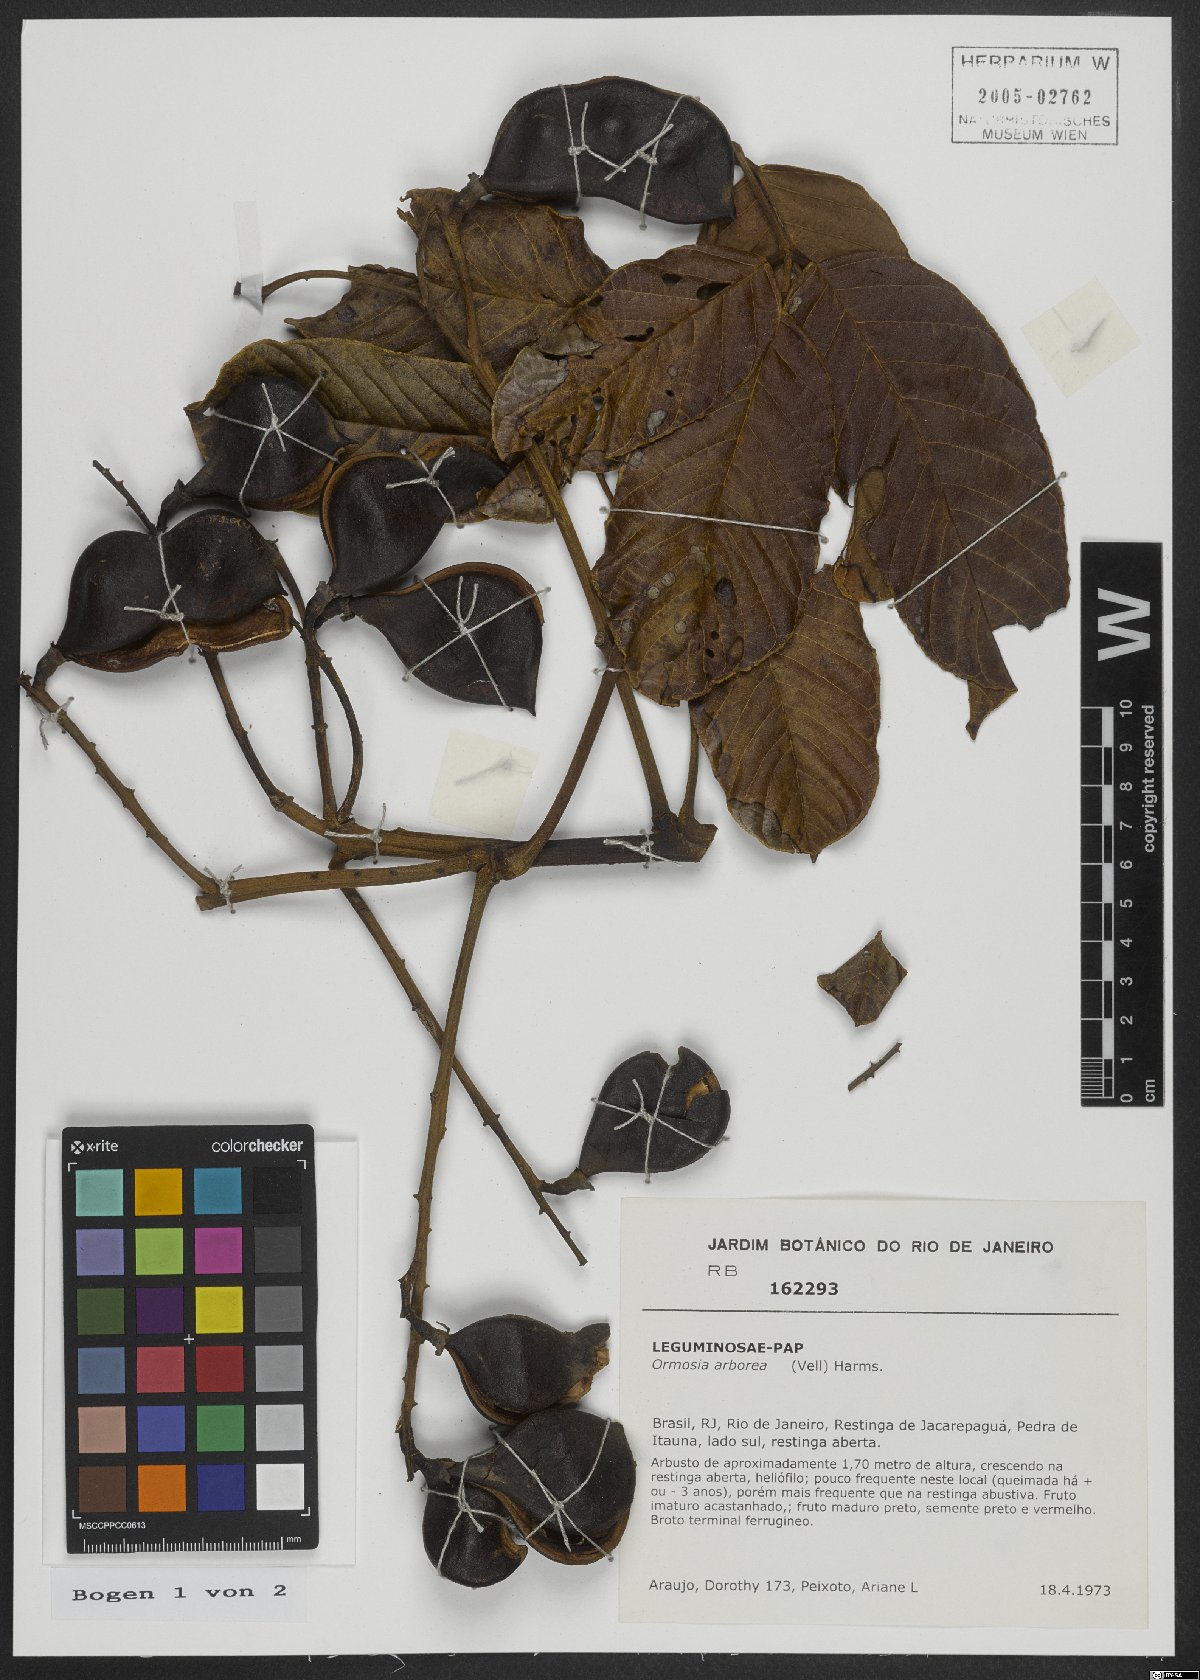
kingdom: Plantae
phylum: Tracheophyta
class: Magnoliopsida
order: Fabales
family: Fabaceae
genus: Ormosia
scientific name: Ormosia arborea
